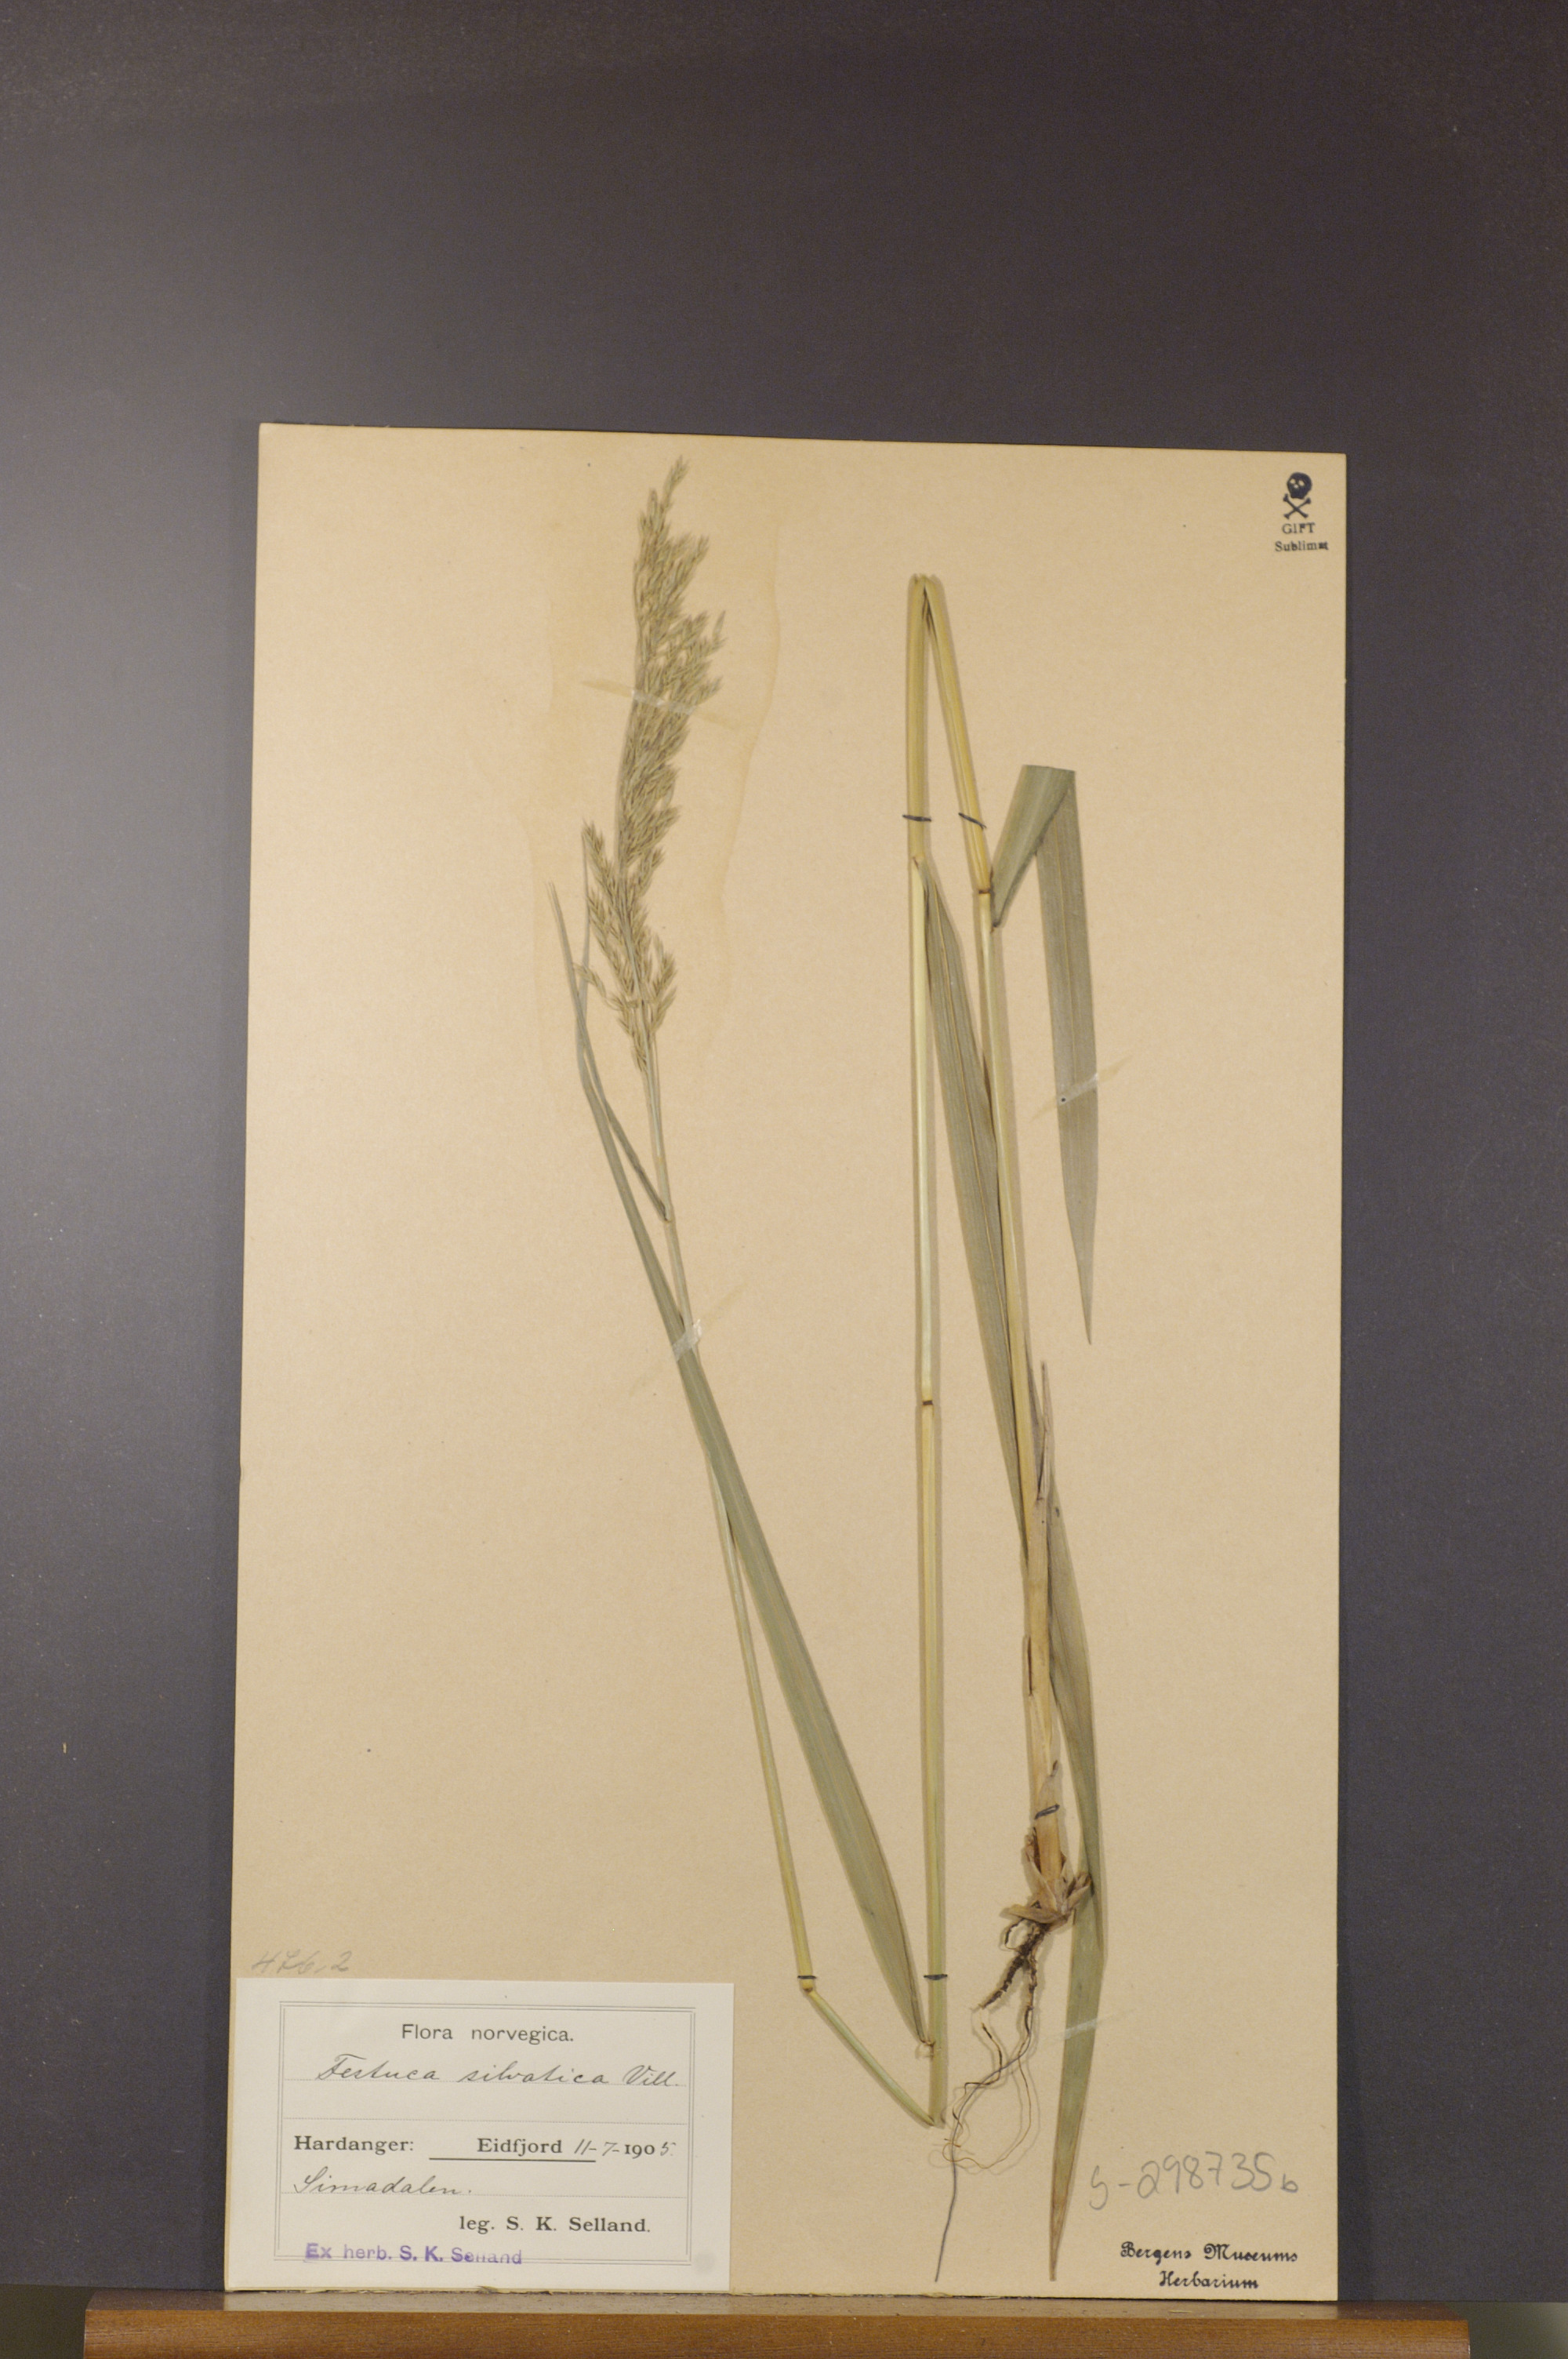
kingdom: Plantae
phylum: Tracheophyta
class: Liliopsida
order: Poales
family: Poaceae
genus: Festuca
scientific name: Festuca altissima
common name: Wood fescue
